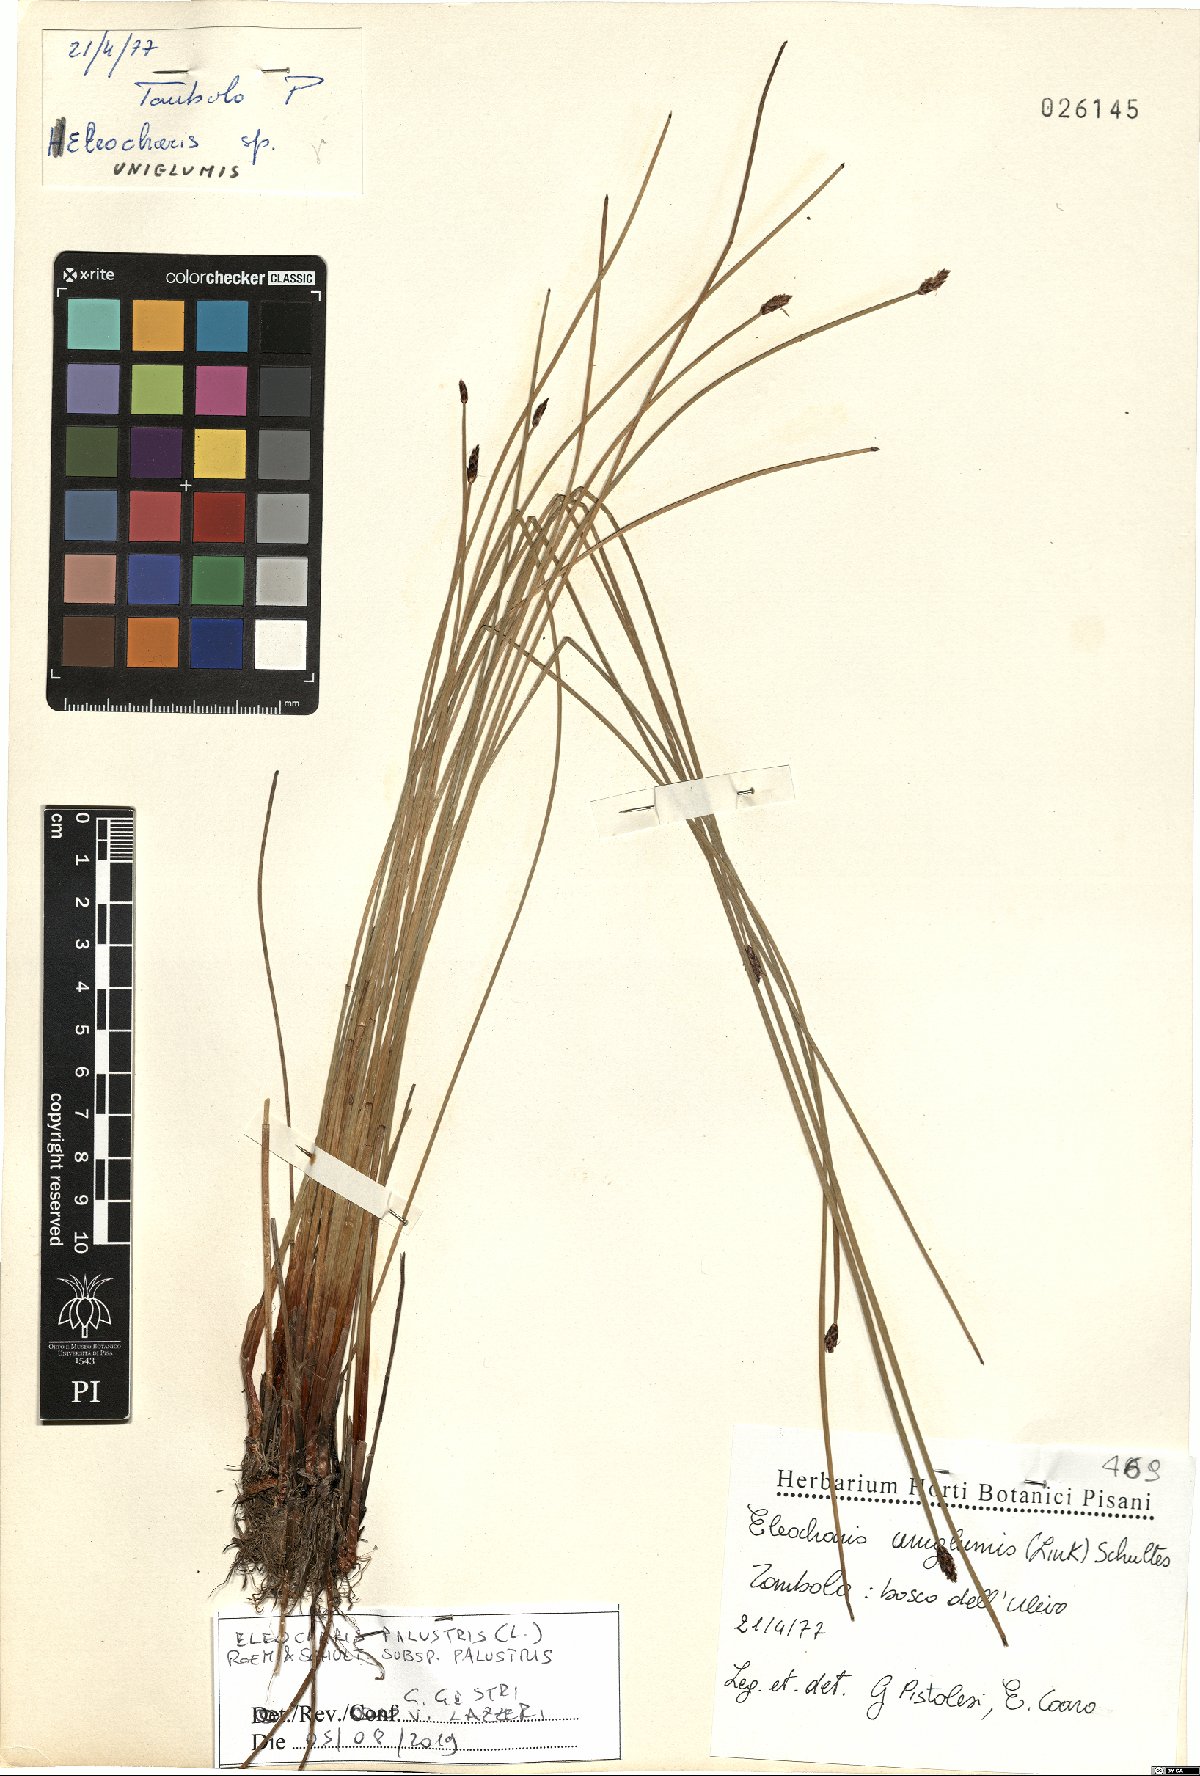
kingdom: Plantae
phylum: Tracheophyta
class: Liliopsida
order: Poales
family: Cyperaceae
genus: Eleocharis
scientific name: Eleocharis palustris
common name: Common spike-rush
